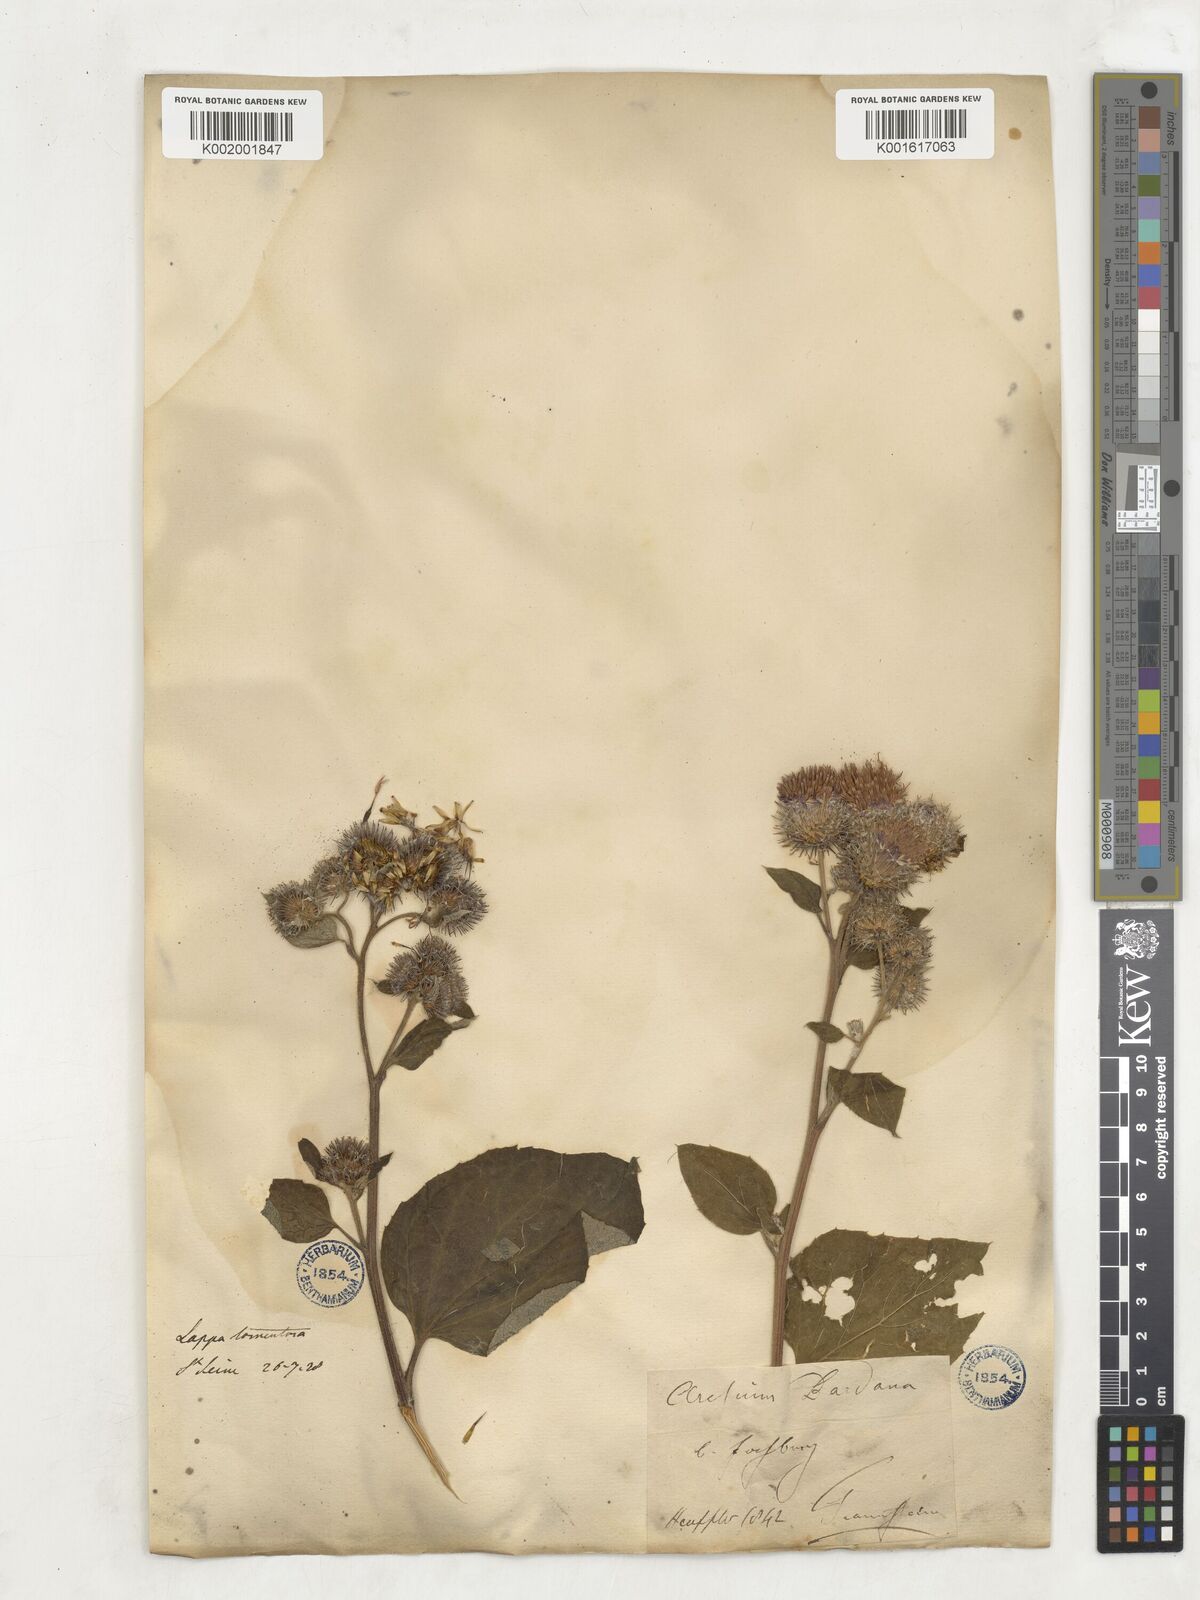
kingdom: Plantae
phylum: Tracheophyta
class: Magnoliopsida
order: Asterales
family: Asteraceae
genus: Arctium
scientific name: Arctium lappa
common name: Greater burdock
